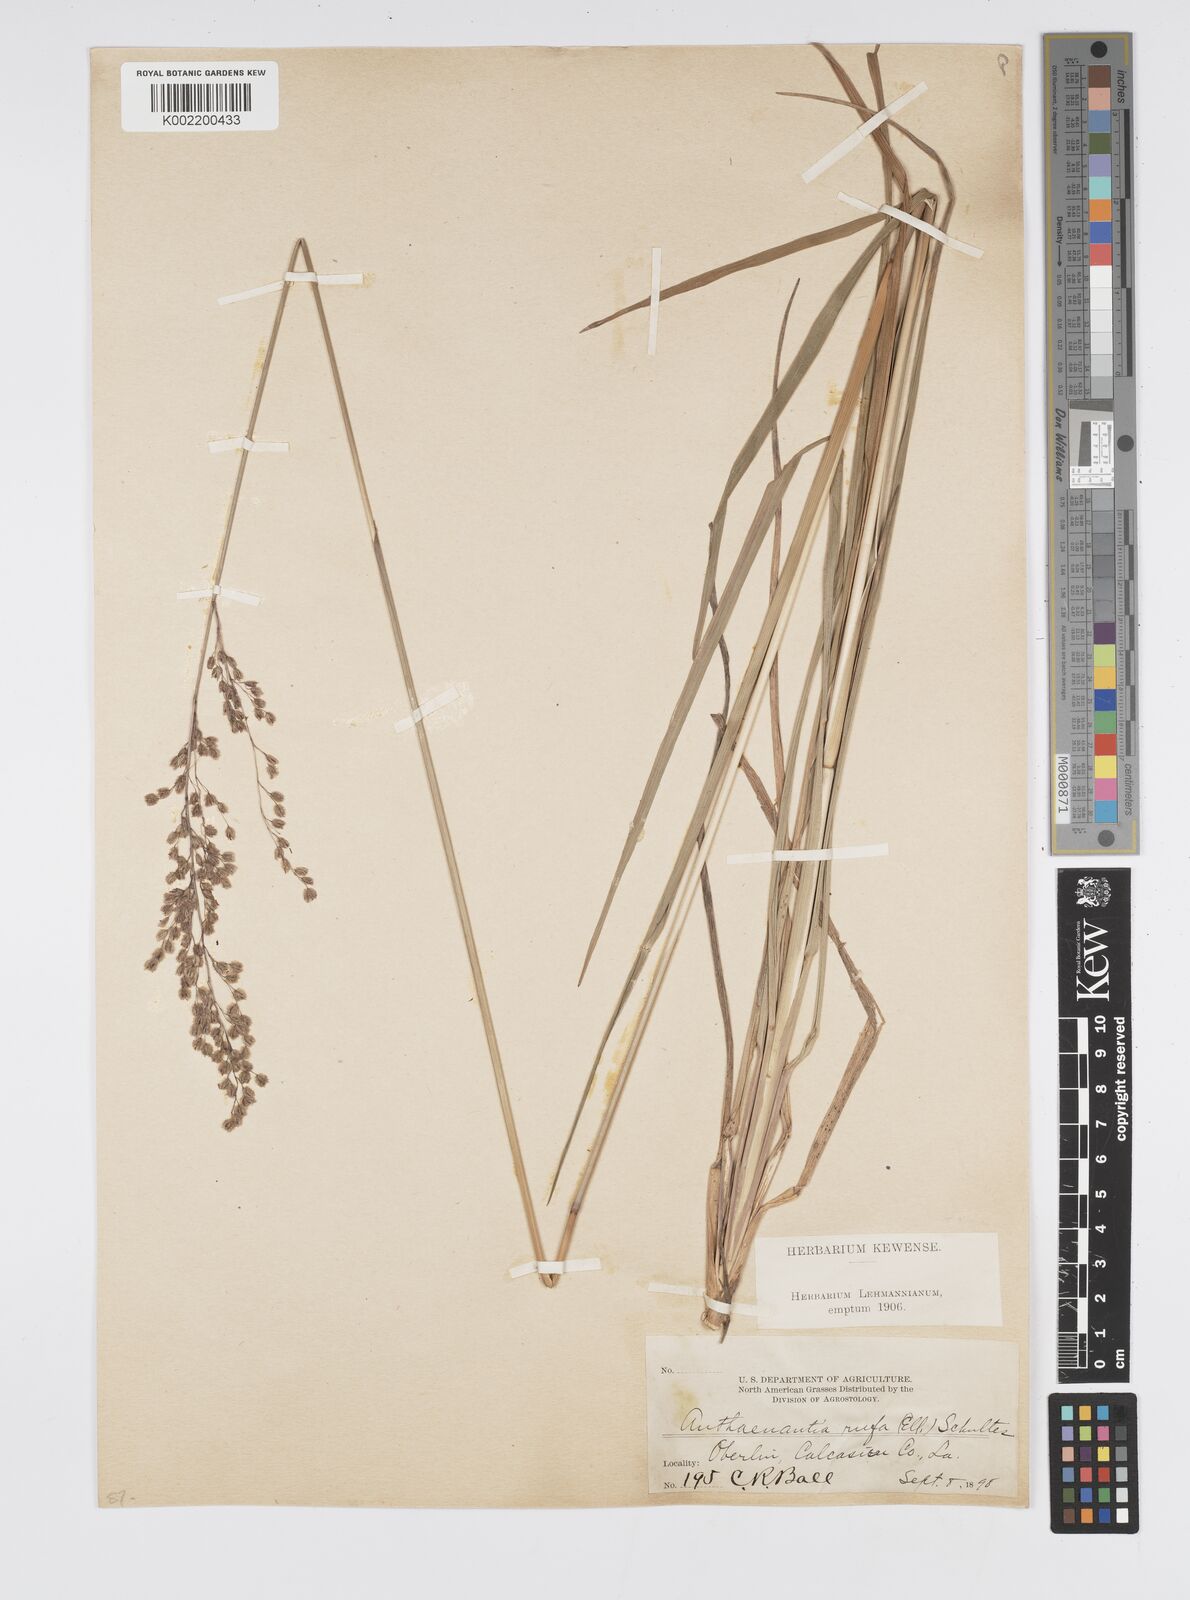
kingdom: Plantae
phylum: Tracheophyta
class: Liliopsida
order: Poales
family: Poaceae
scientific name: Poaceae
